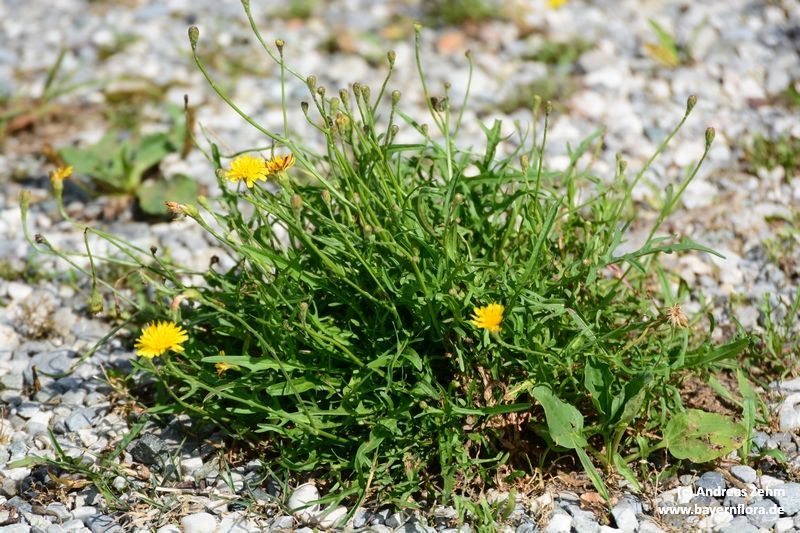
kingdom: Plantae
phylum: Tracheophyta
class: Magnoliopsida
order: Asterales
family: Asteraceae
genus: Scorzoneroides
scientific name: Scorzoneroides autumnalis
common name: Autumn hawkbit
